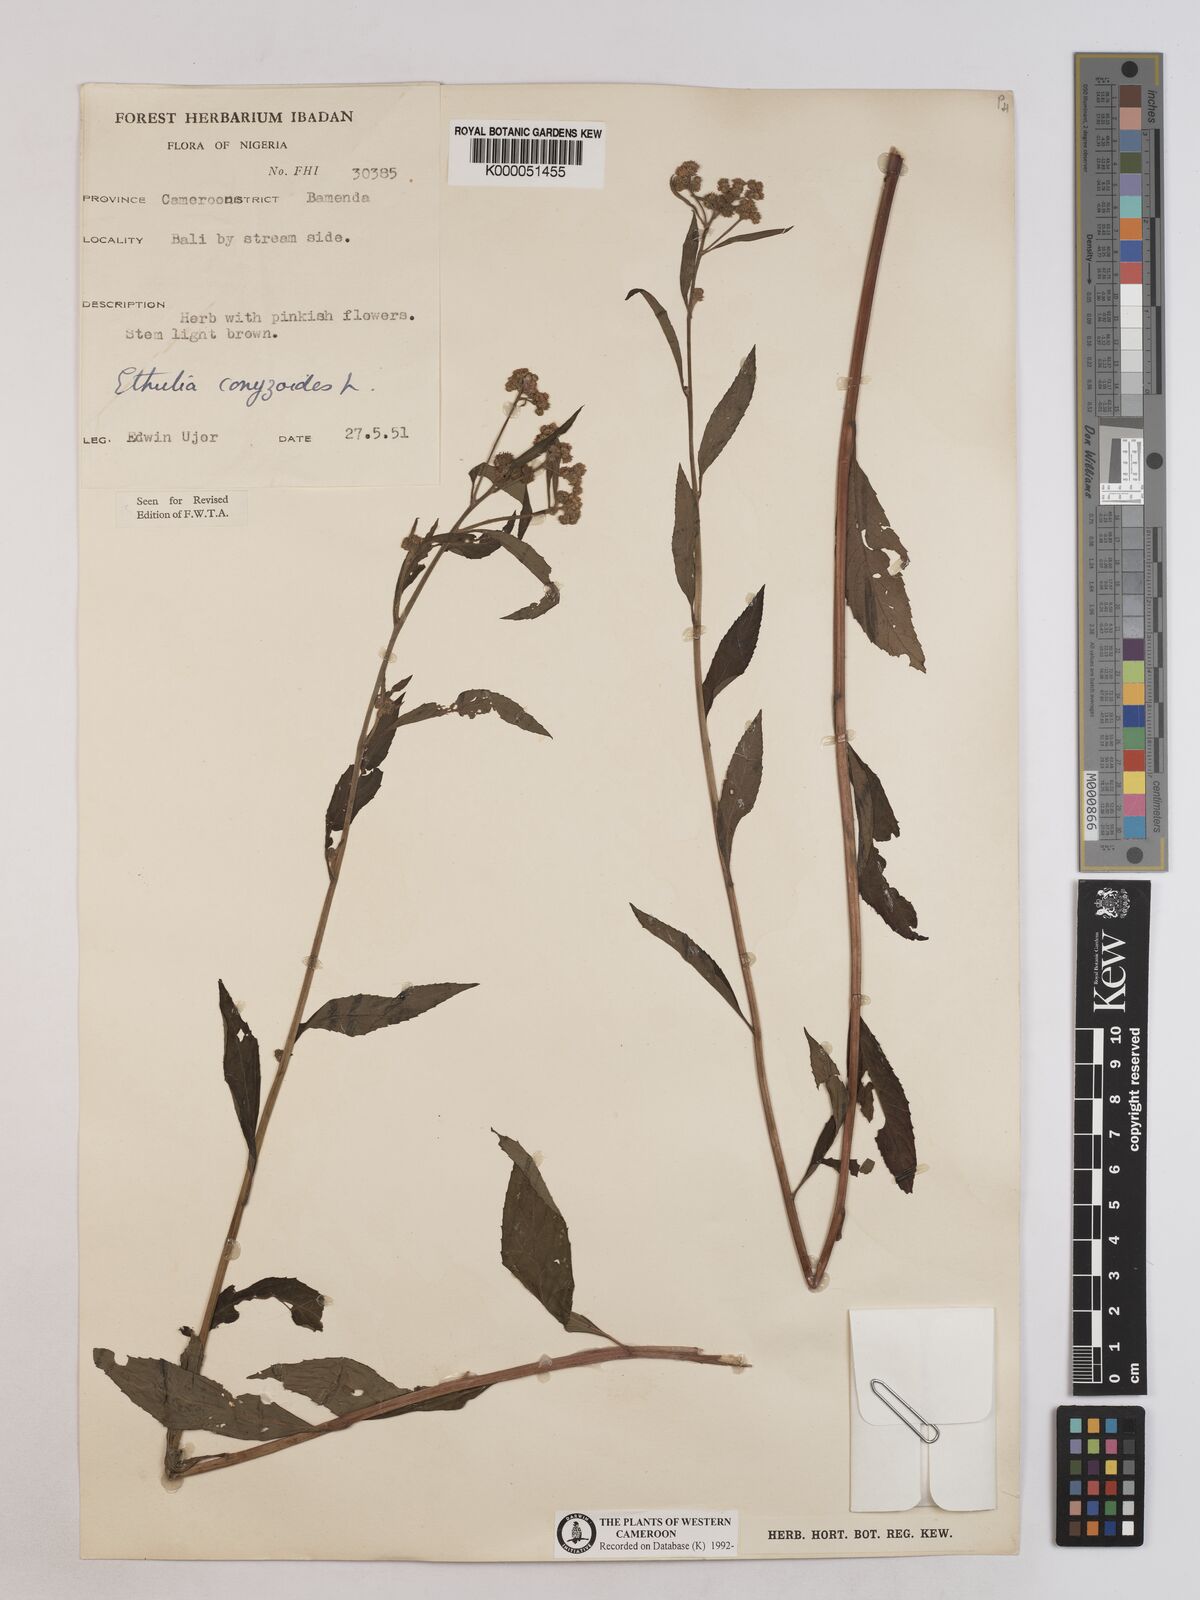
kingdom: Plantae
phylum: Tracheophyta
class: Magnoliopsida
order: Asterales
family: Asteraceae
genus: Ethulia
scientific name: Ethulia conyzoides
